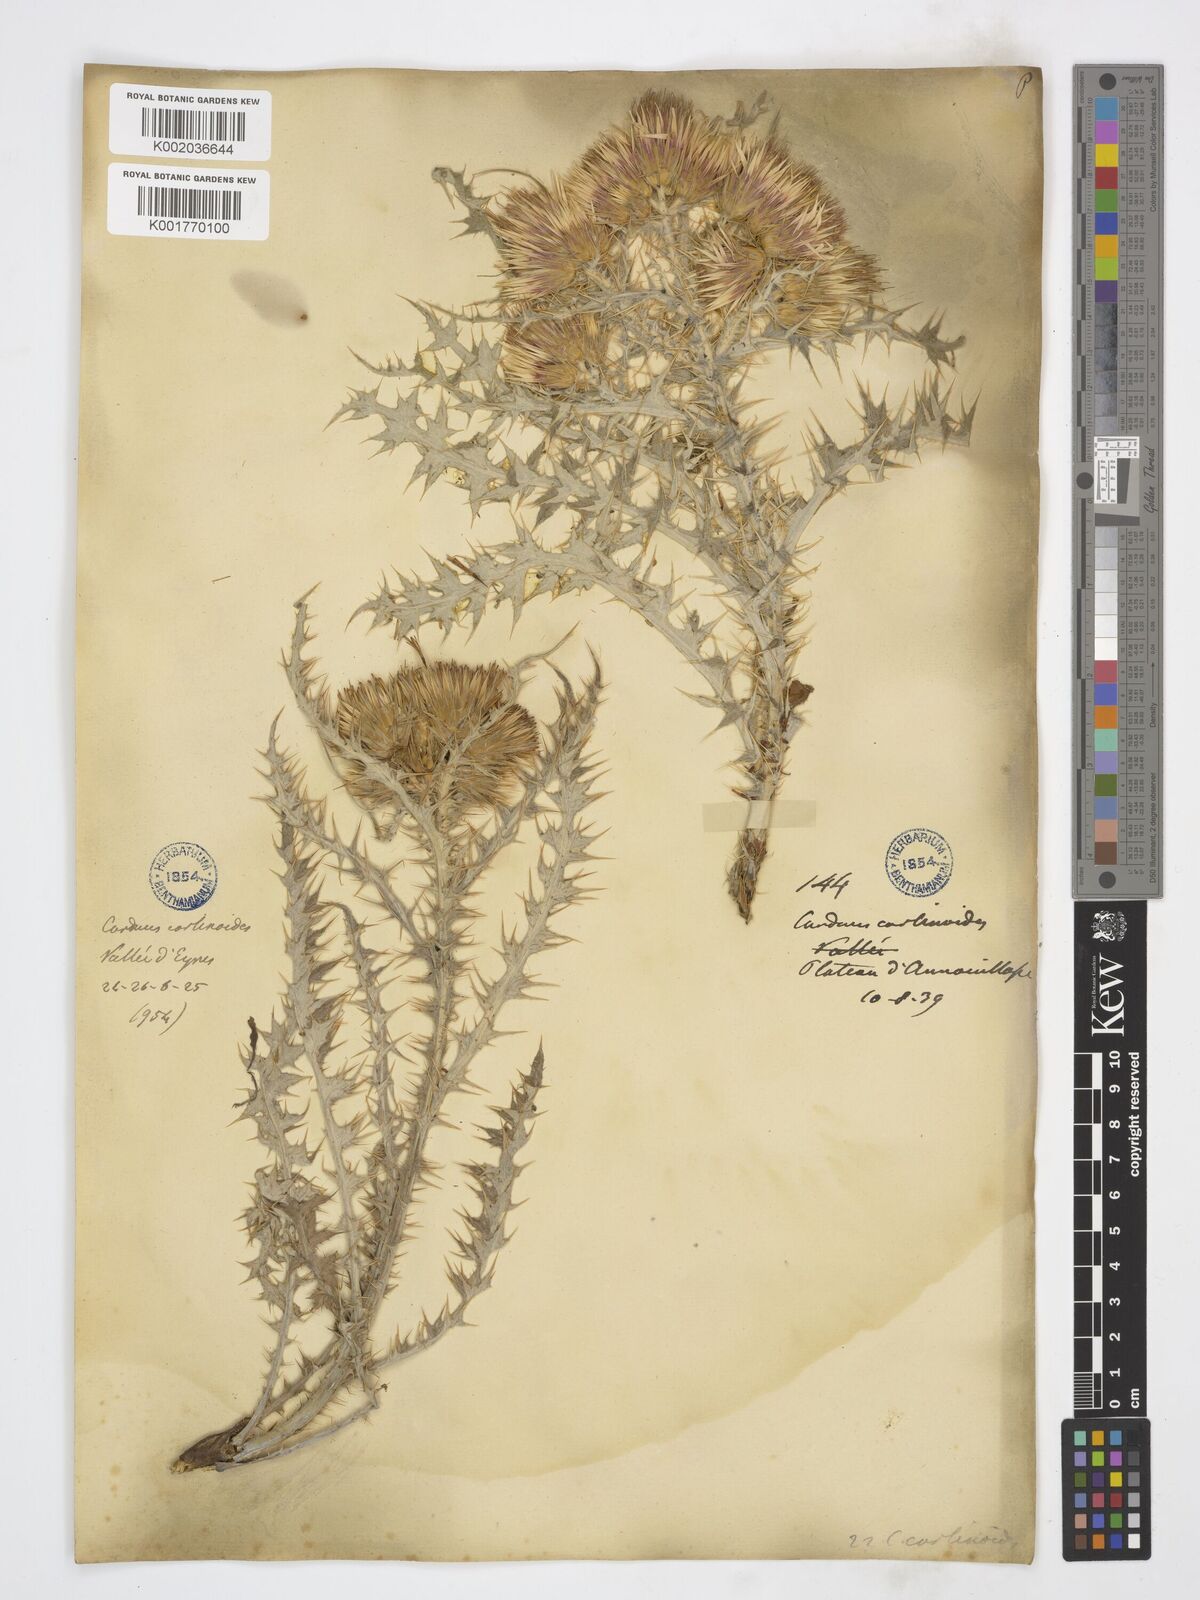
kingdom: Plantae
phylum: Tracheophyta
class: Magnoliopsida
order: Asterales
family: Asteraceae
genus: Carduus
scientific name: Carduus carlinoides
